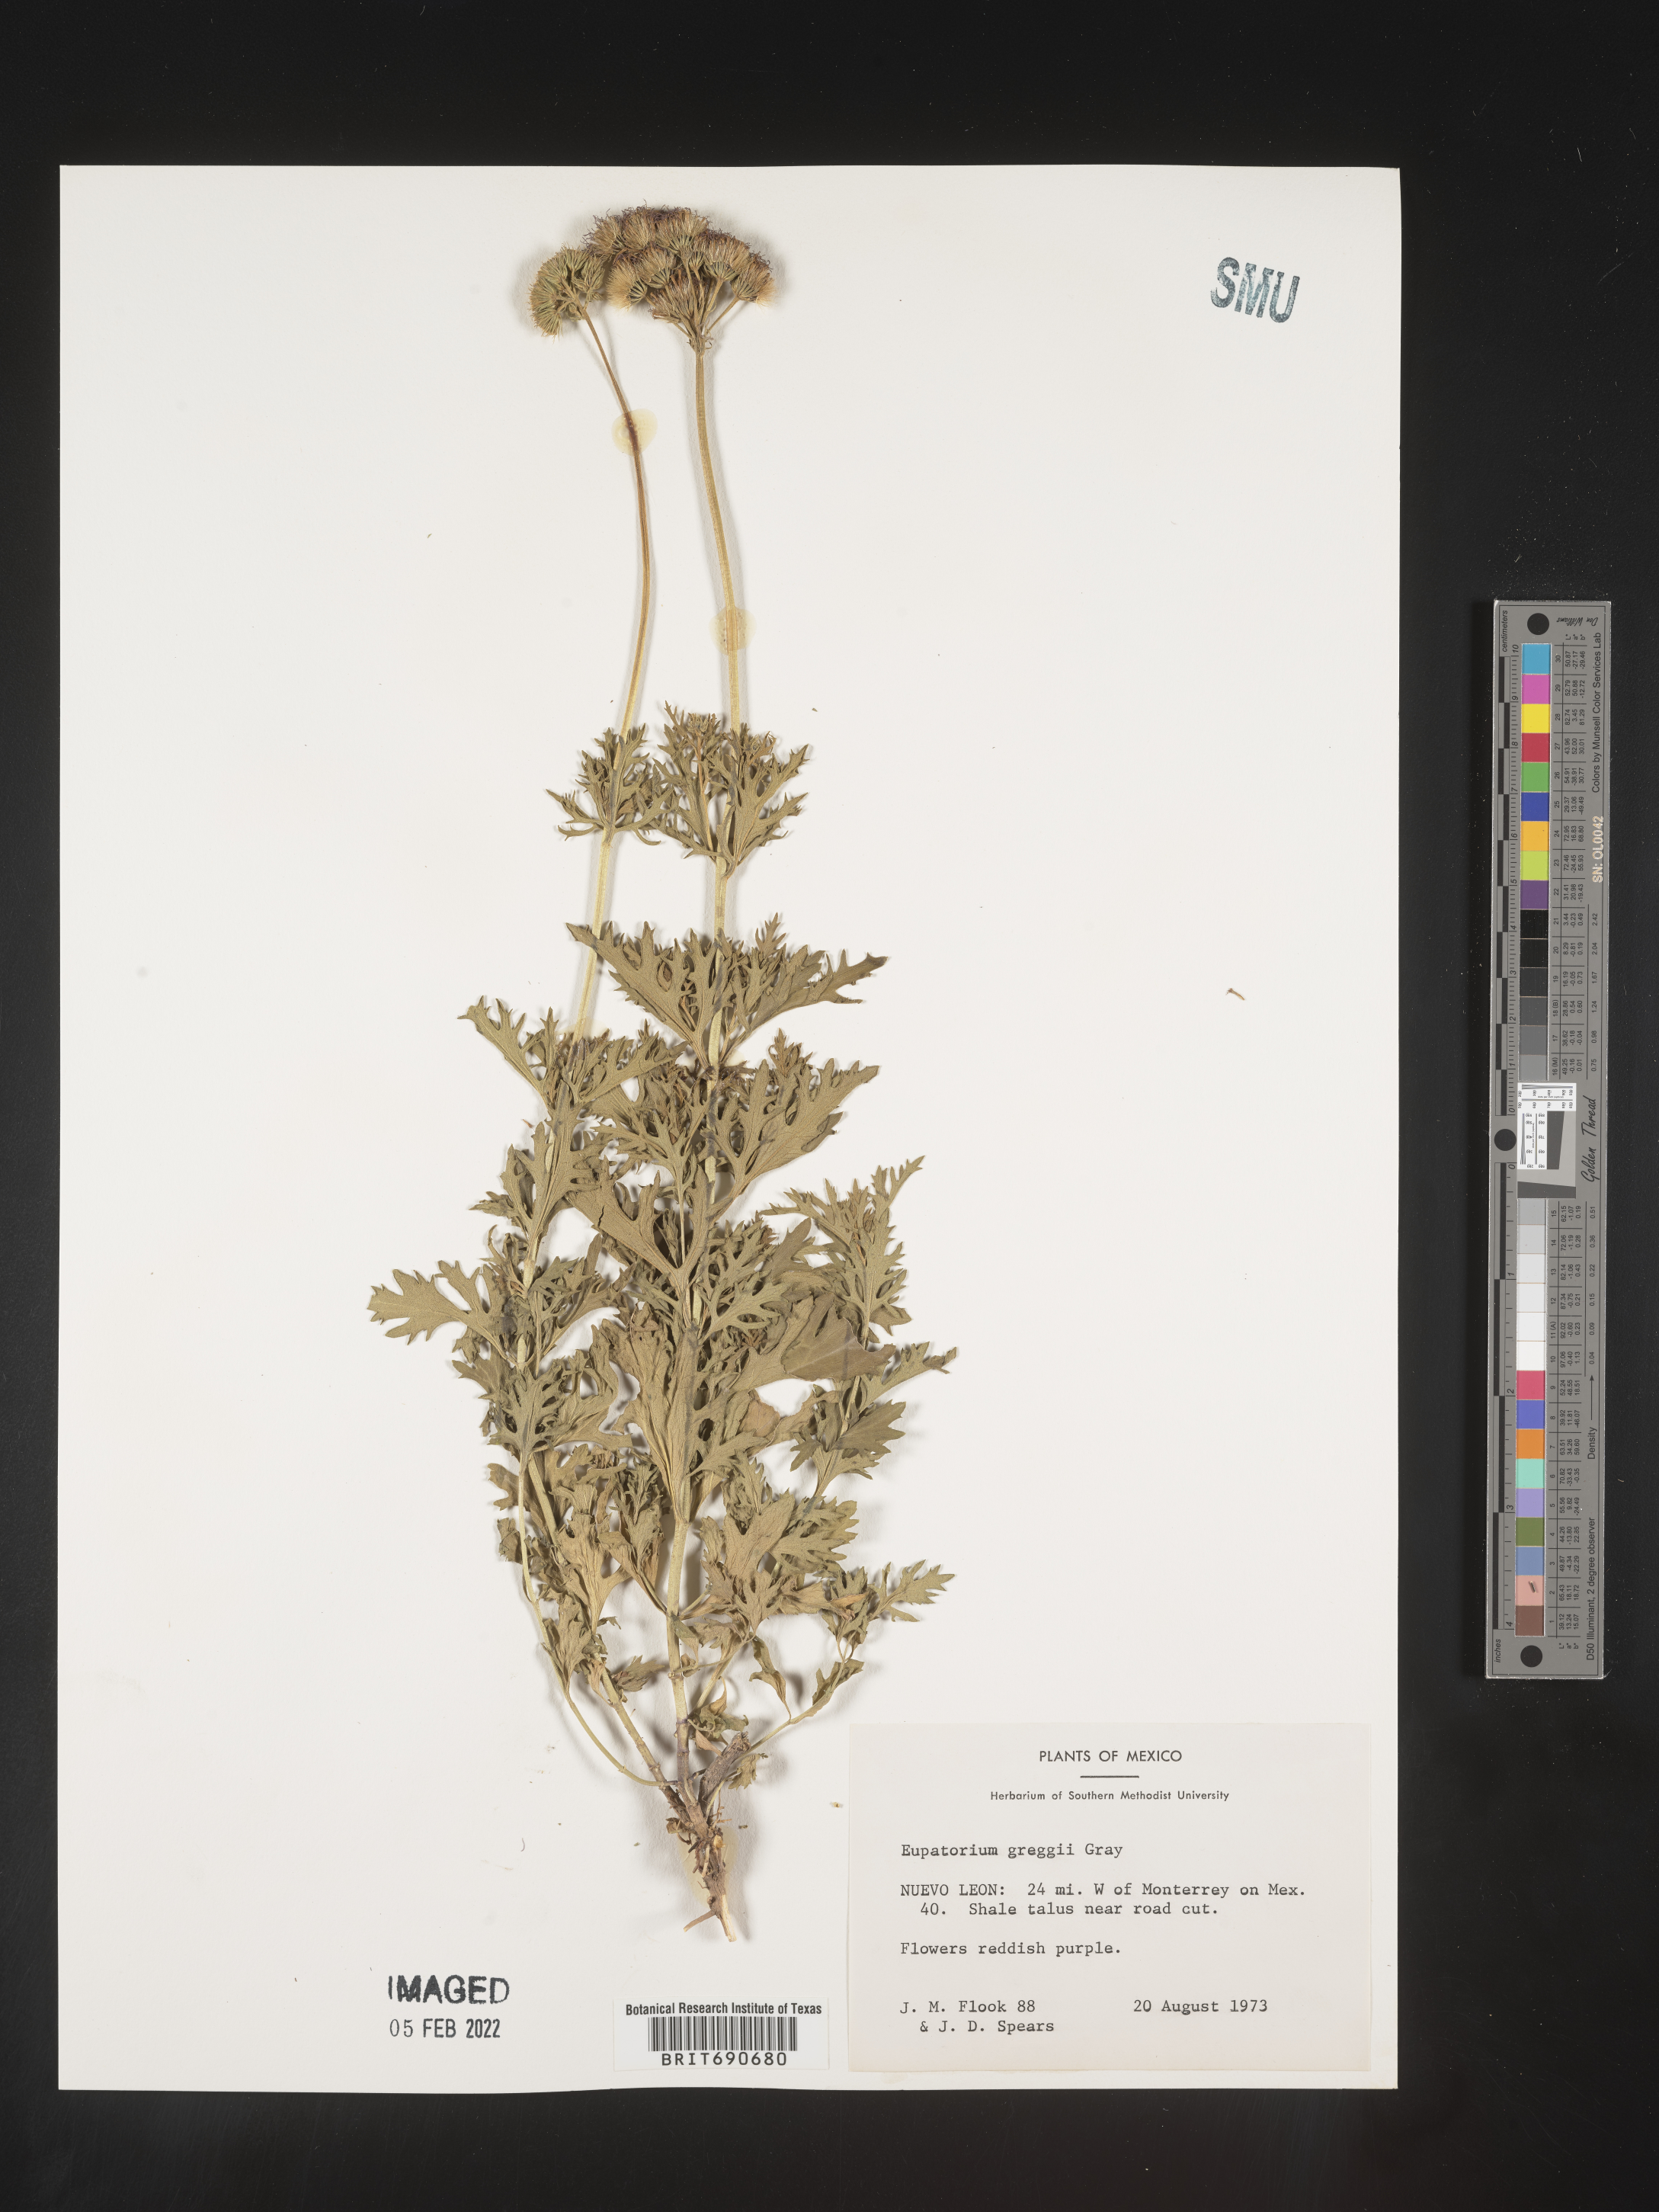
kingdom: Plantae
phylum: Tracheophyta
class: Magnoliopsida
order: Asterales
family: Asteraceae
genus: Conoclinium
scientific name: Conoclinium
